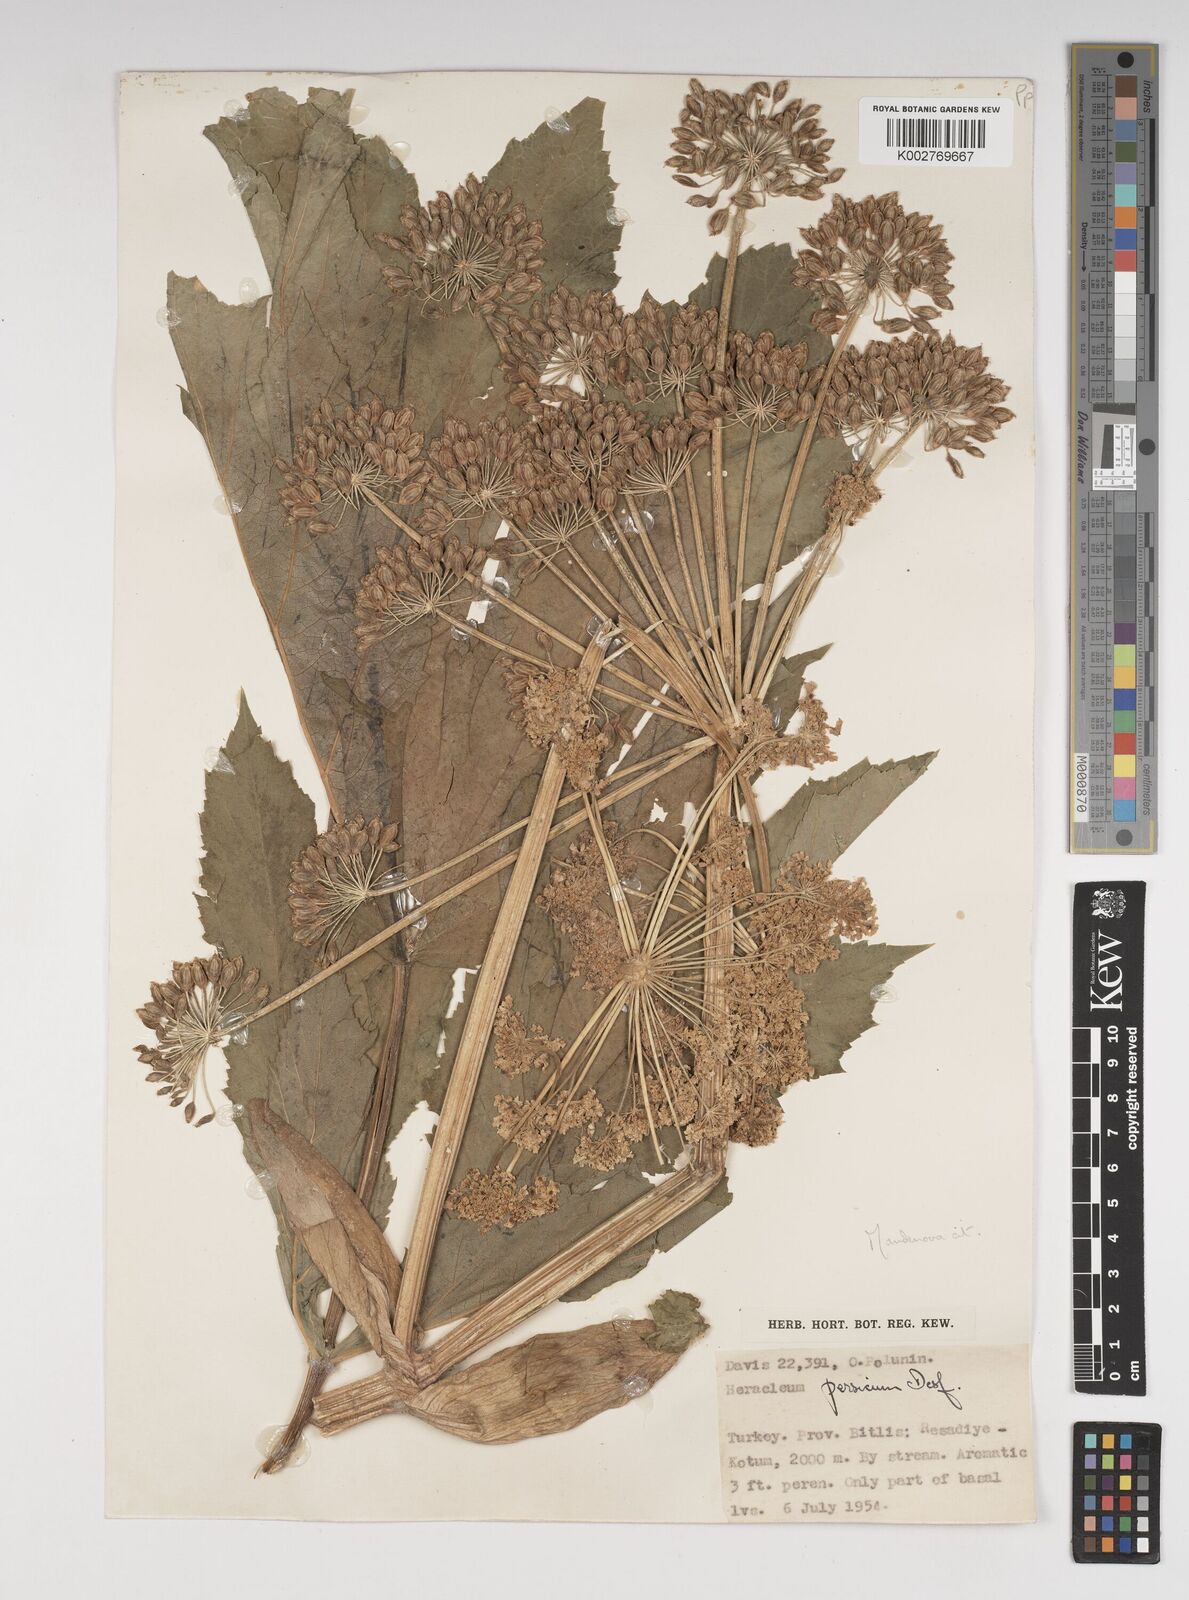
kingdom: Plantae
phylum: Tracheophyta
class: Magnoliopsida
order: Apiales
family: Apiaceae
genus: Heracleum
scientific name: Heracleum persicum
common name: Persian hogweed
